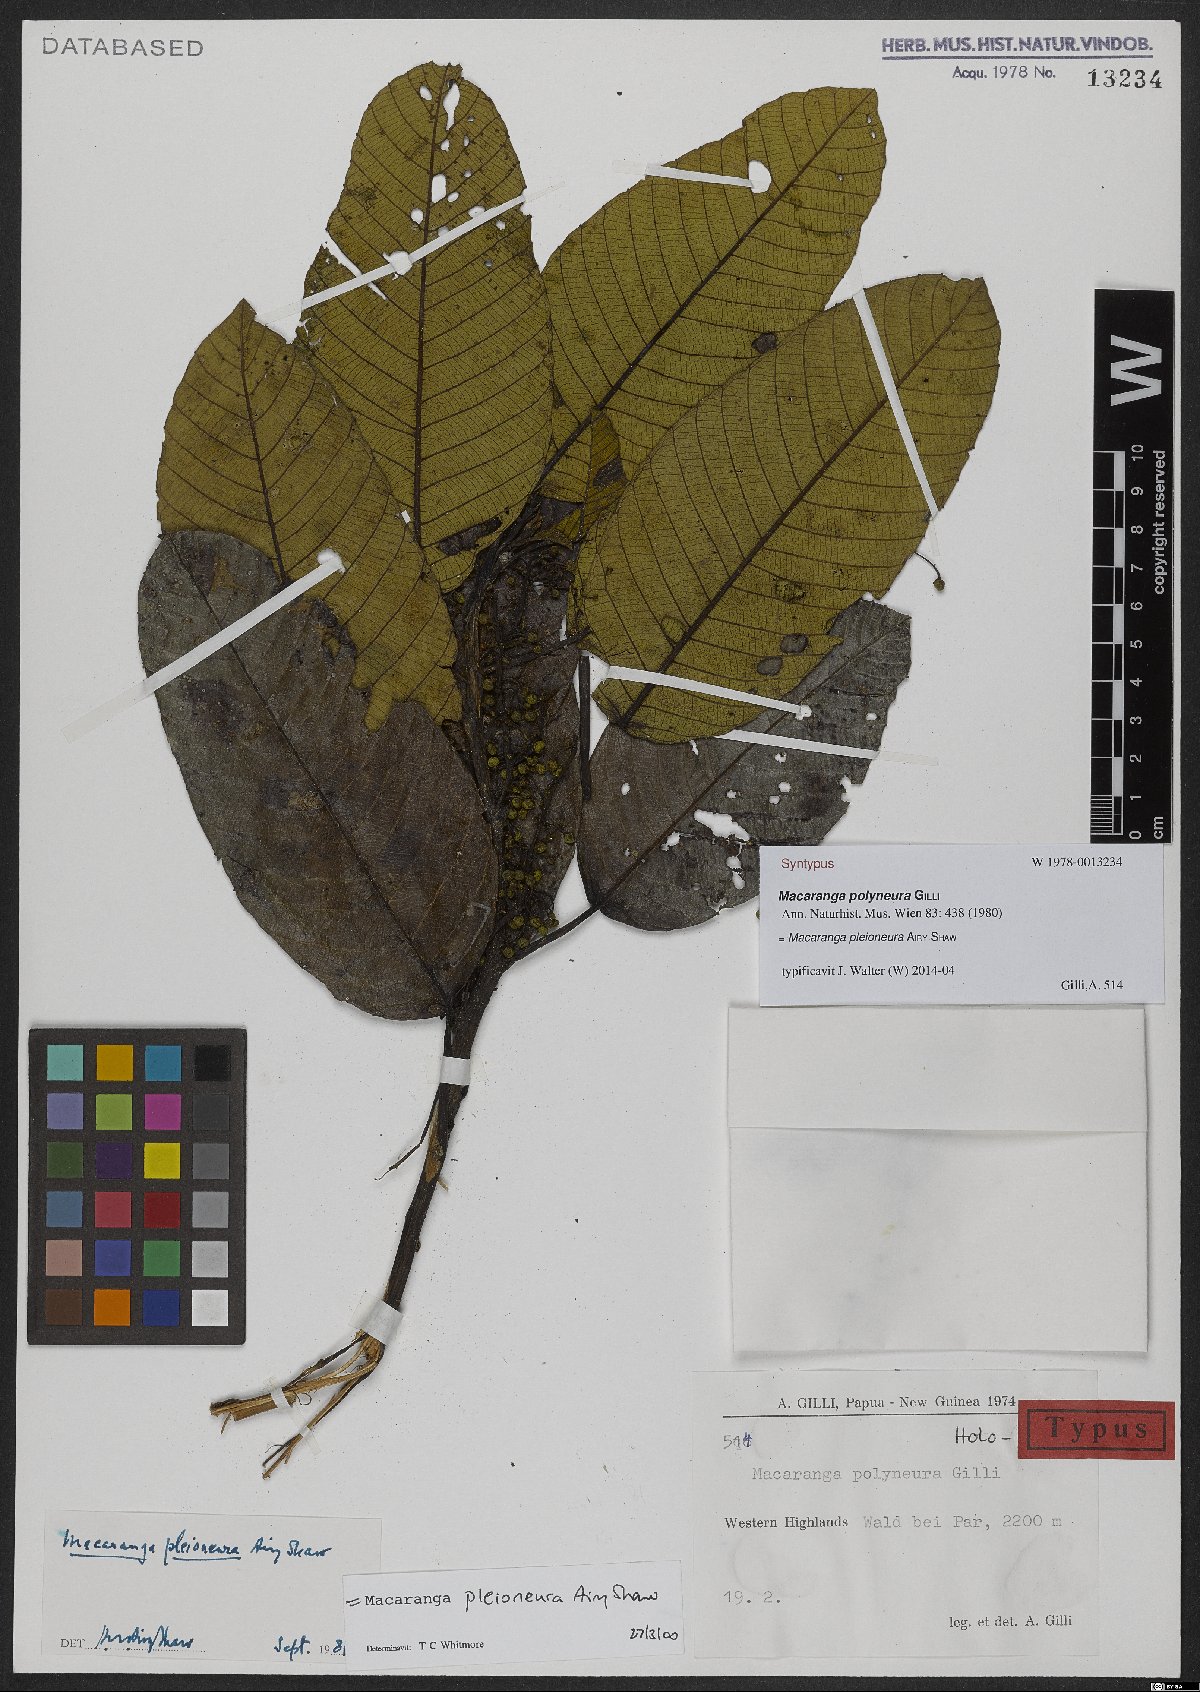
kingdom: Plantae
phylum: Tracheophyta
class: Magnoliopsida
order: Malpighiales
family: Euphorbiaceae
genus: Macaranga
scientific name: Macaranga pleioneura
